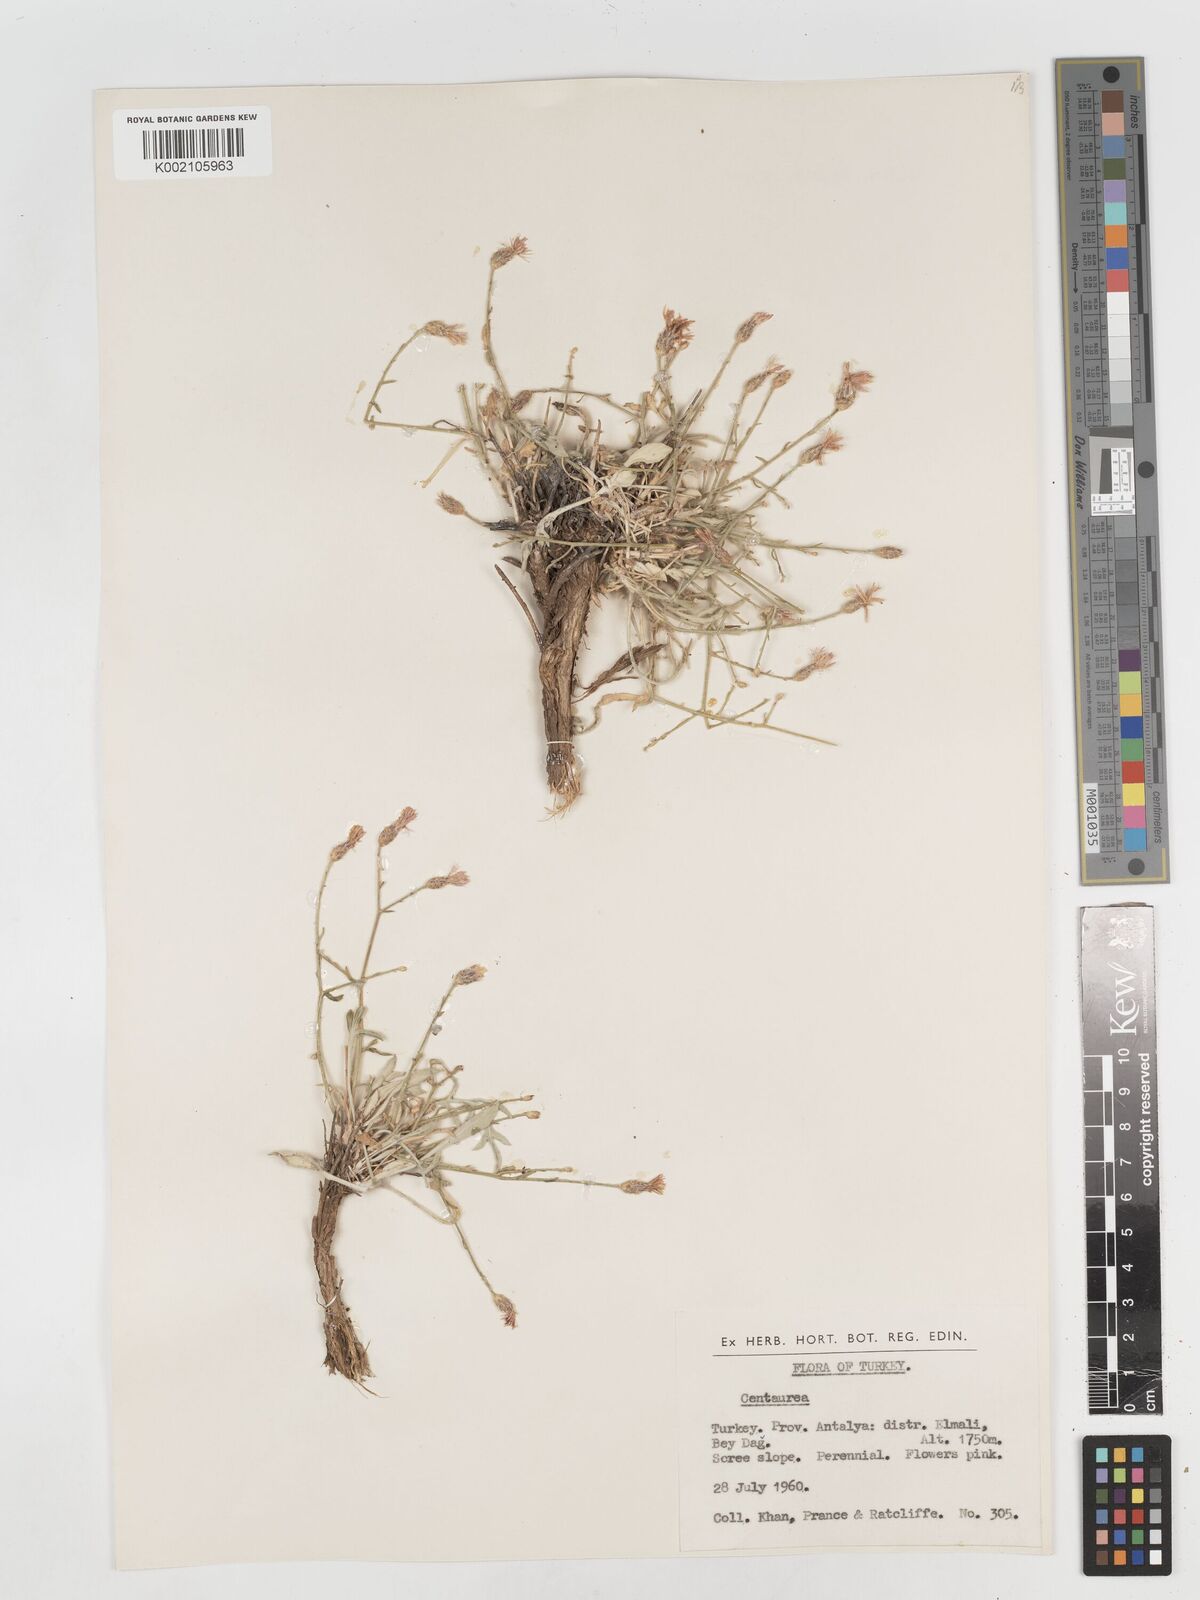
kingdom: Plantae
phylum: Tracheophyta
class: Magnoliopsida
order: Asterales
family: Asteraceae
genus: Centaurea
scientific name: Centaurea
